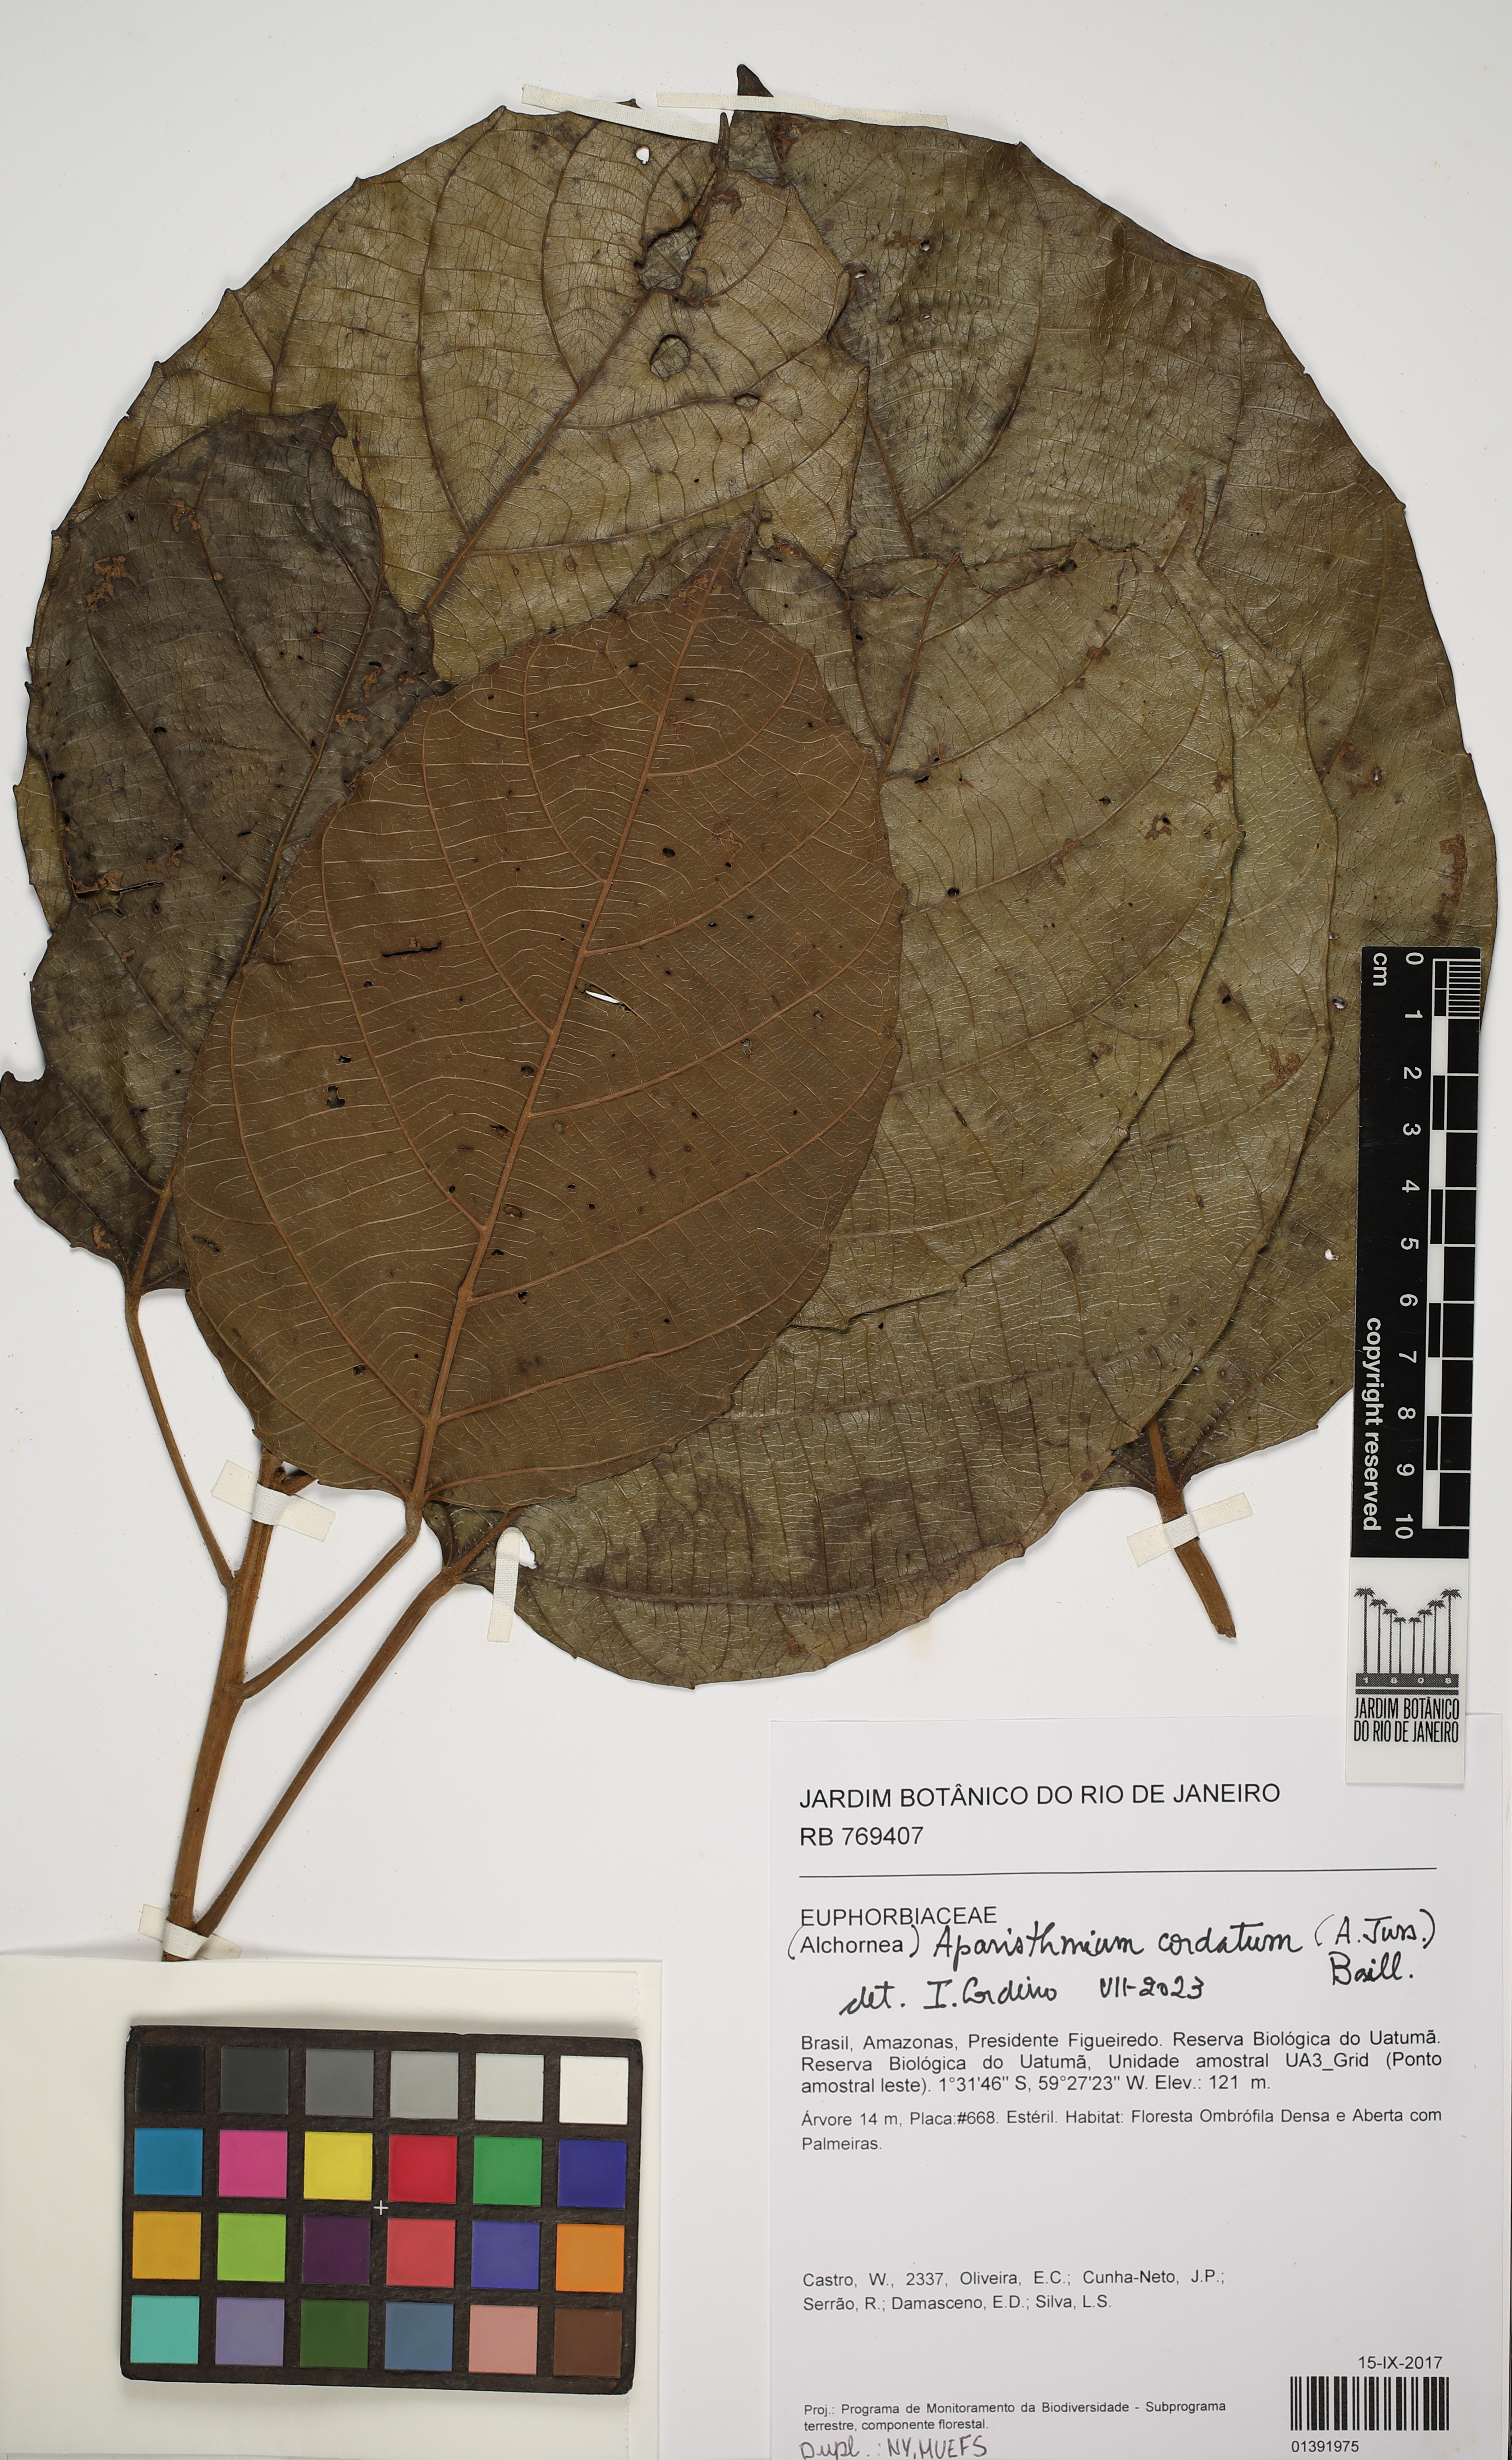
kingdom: Plantae
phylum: Tracheophyta
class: Magnoliopsida
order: Malpighiales
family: Euphorbiaceae
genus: Aparisthmium
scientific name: Aparisthmium cordatum
